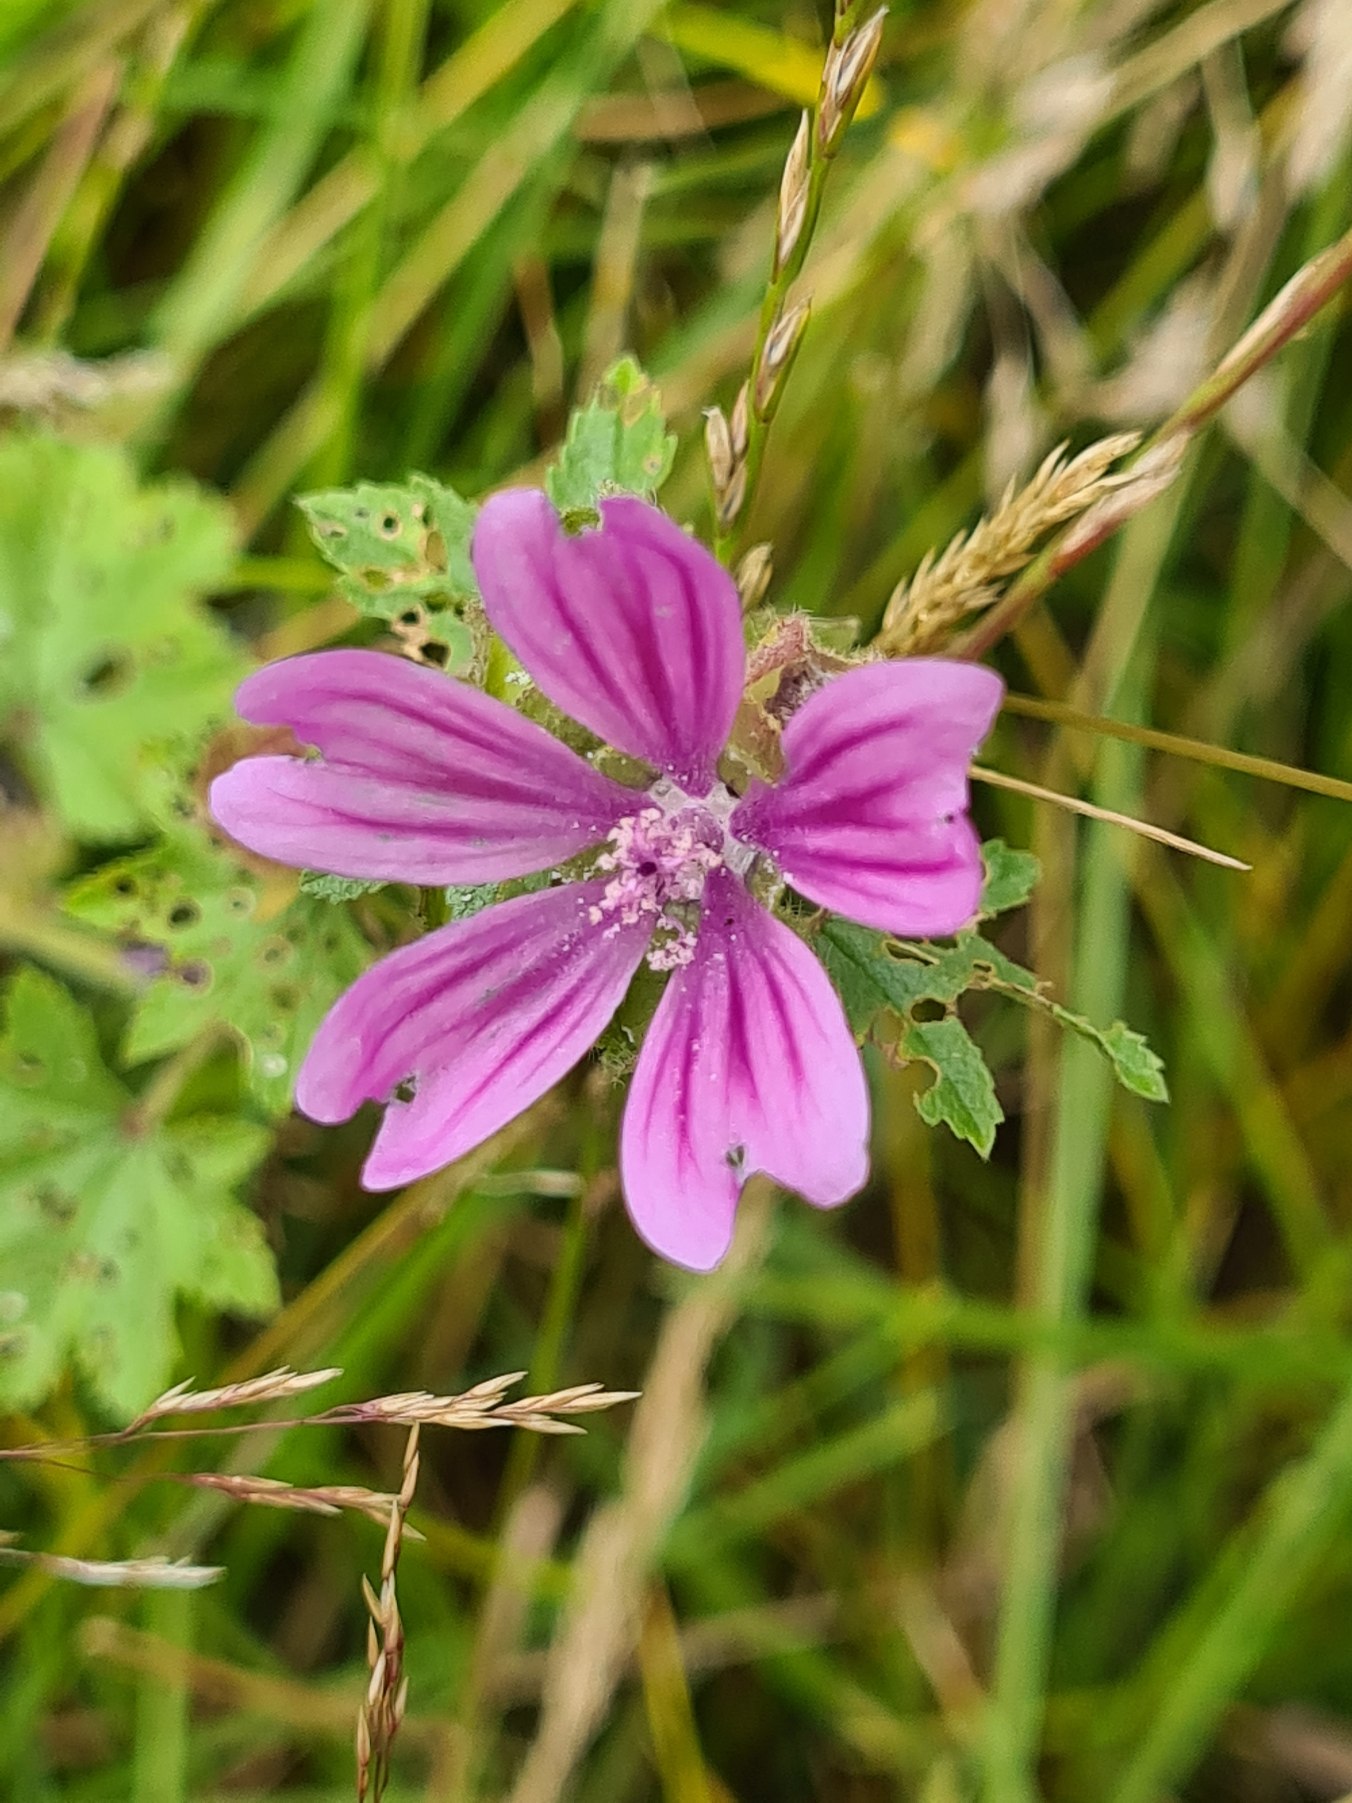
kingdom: Plantae
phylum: Tracheophyta
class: Magnoliopsida
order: Malvales
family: Malvaceae
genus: Malva
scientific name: Malva sylvestris
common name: Almindelig katost
